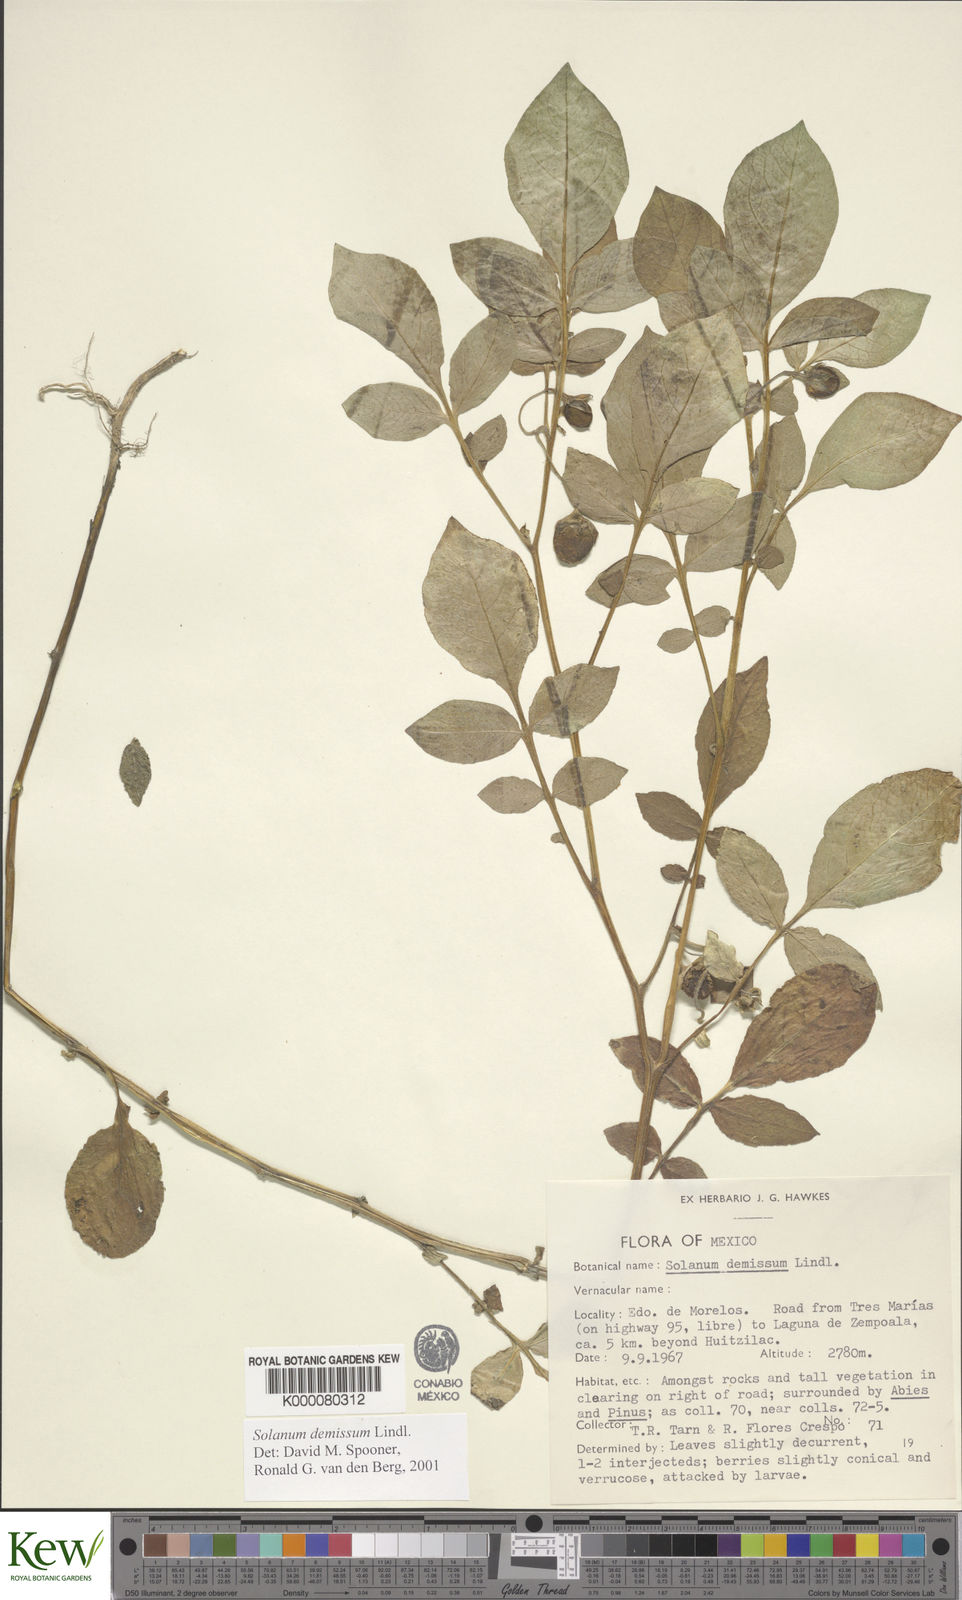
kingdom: Plantae
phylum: Tracheophyta
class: Magnoliopsida
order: Solanales
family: Solanaceae
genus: Solanum
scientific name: Solanum demissum
